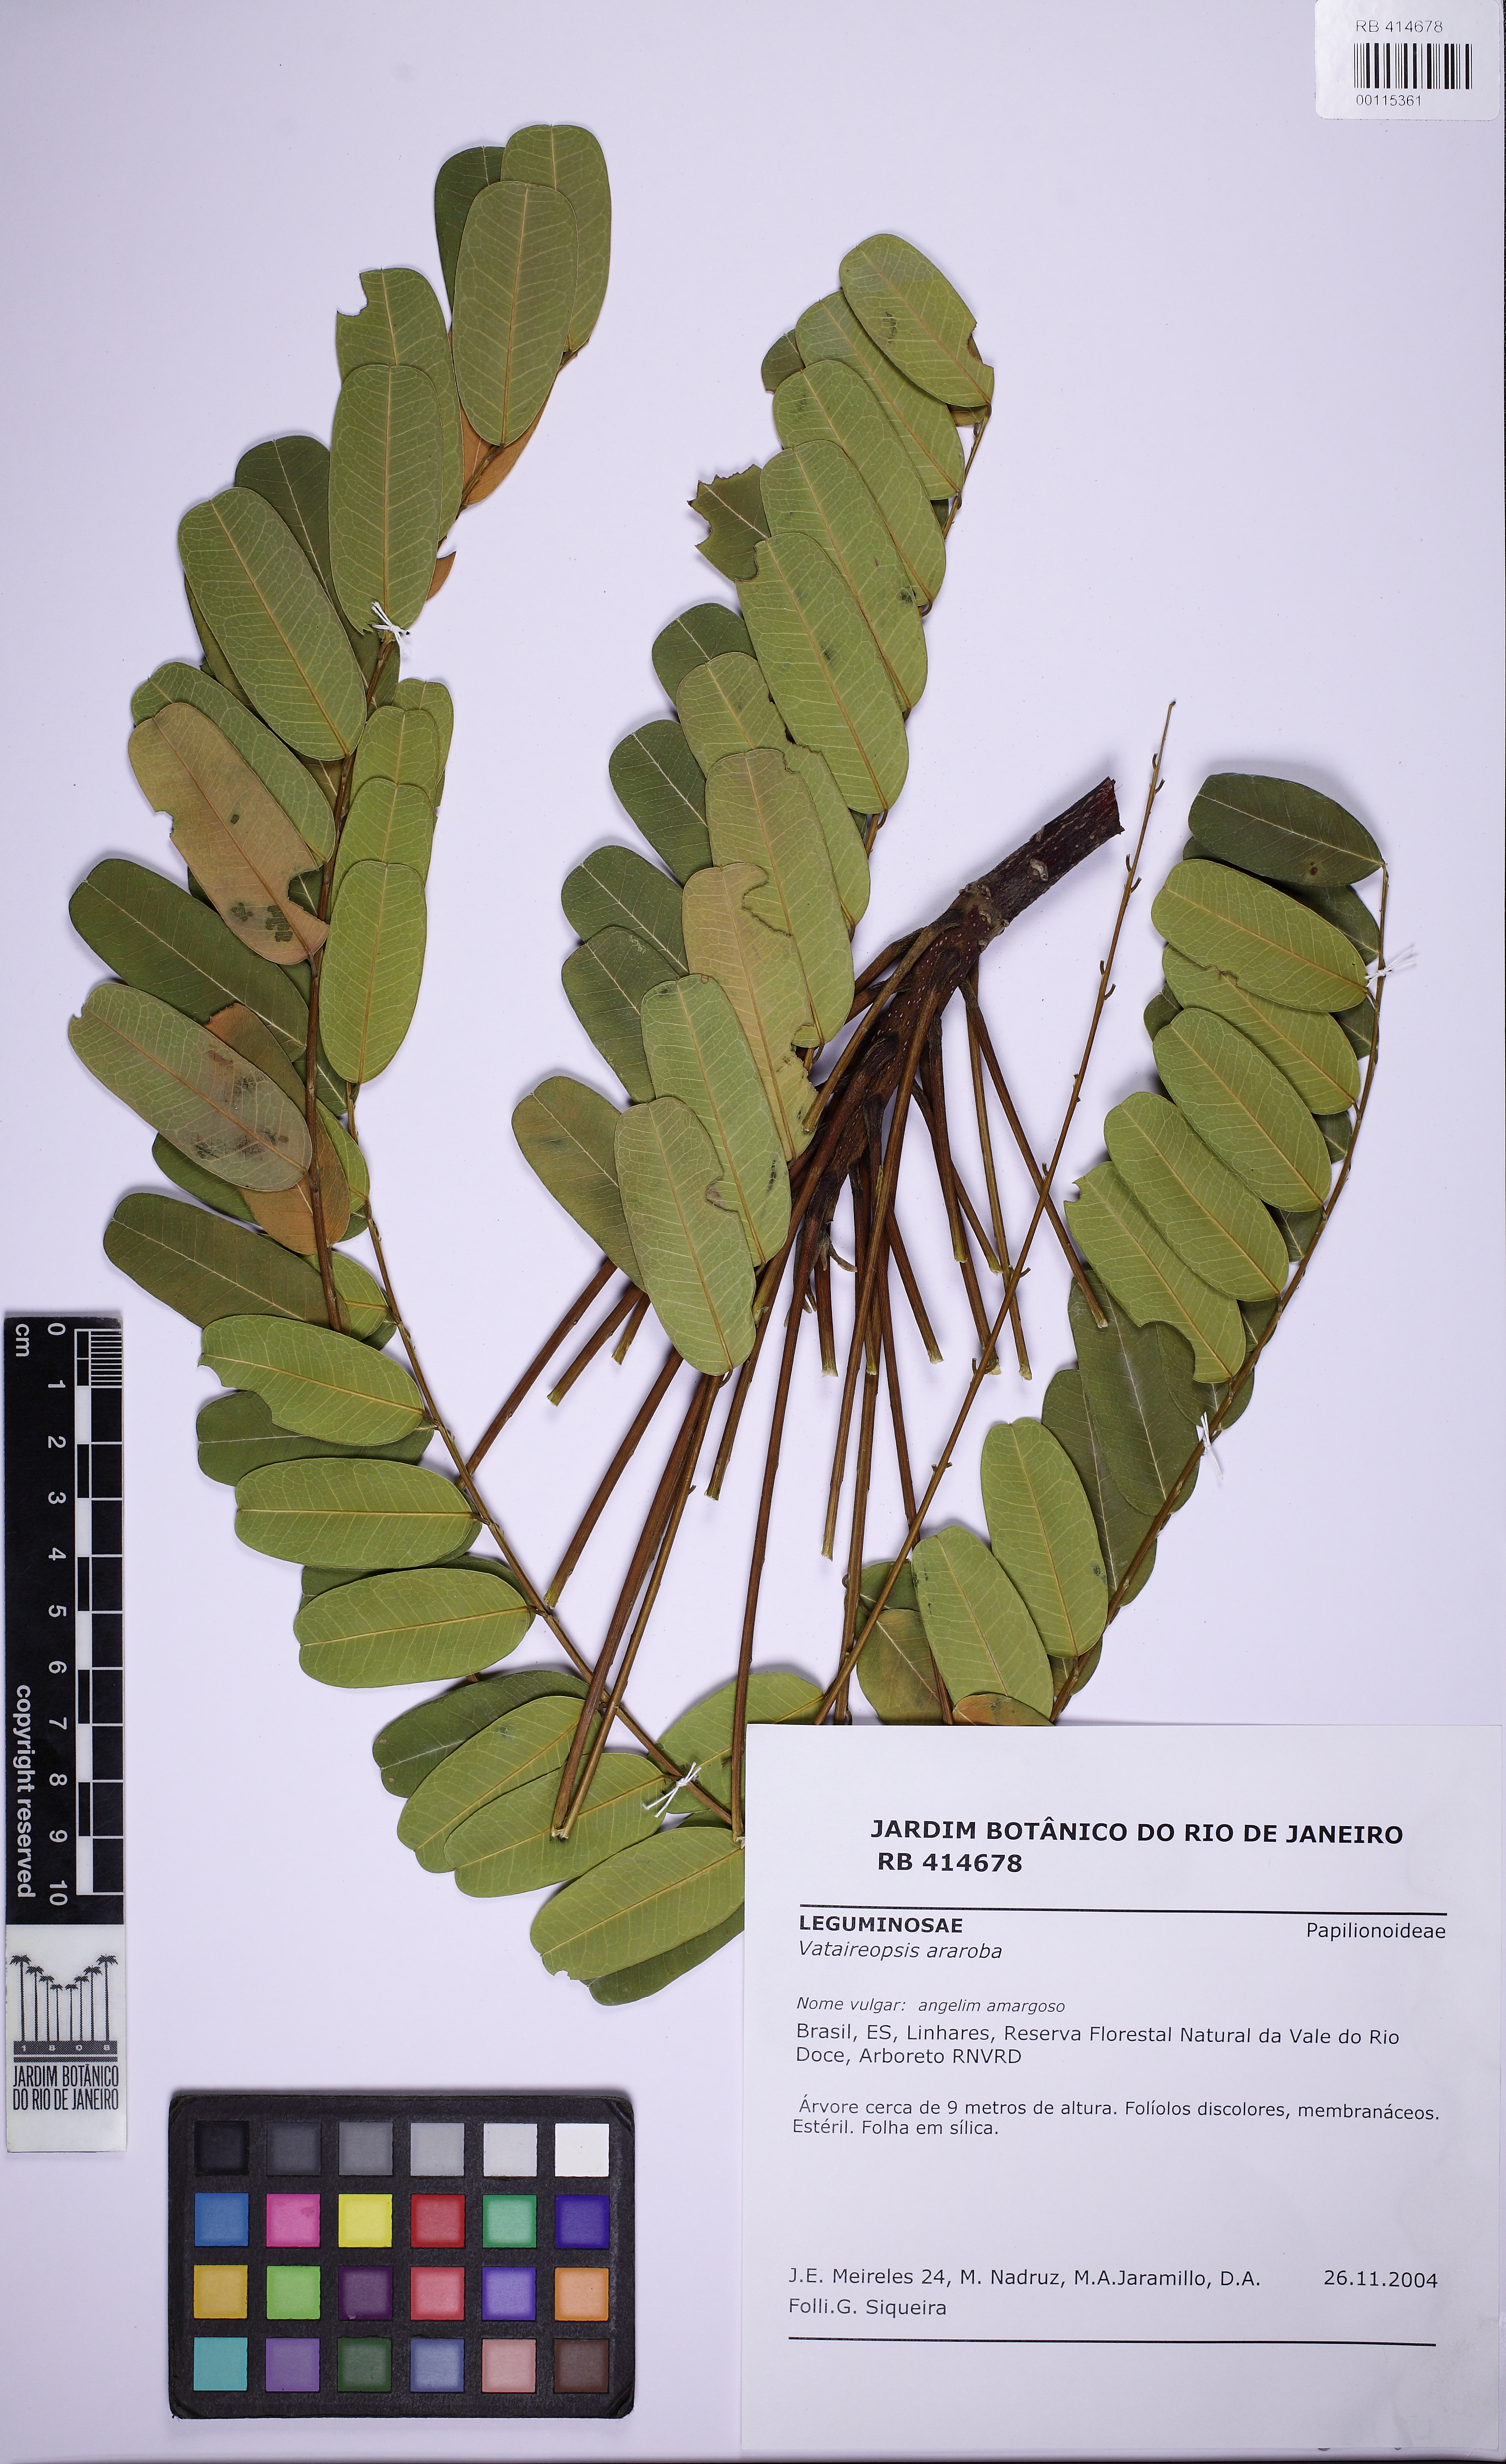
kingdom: Plantae
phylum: Tracheophyta
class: Magnoliopsida
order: Fabales
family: Fabaceae
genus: Vataireopsis
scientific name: Vataireopsis araroba
